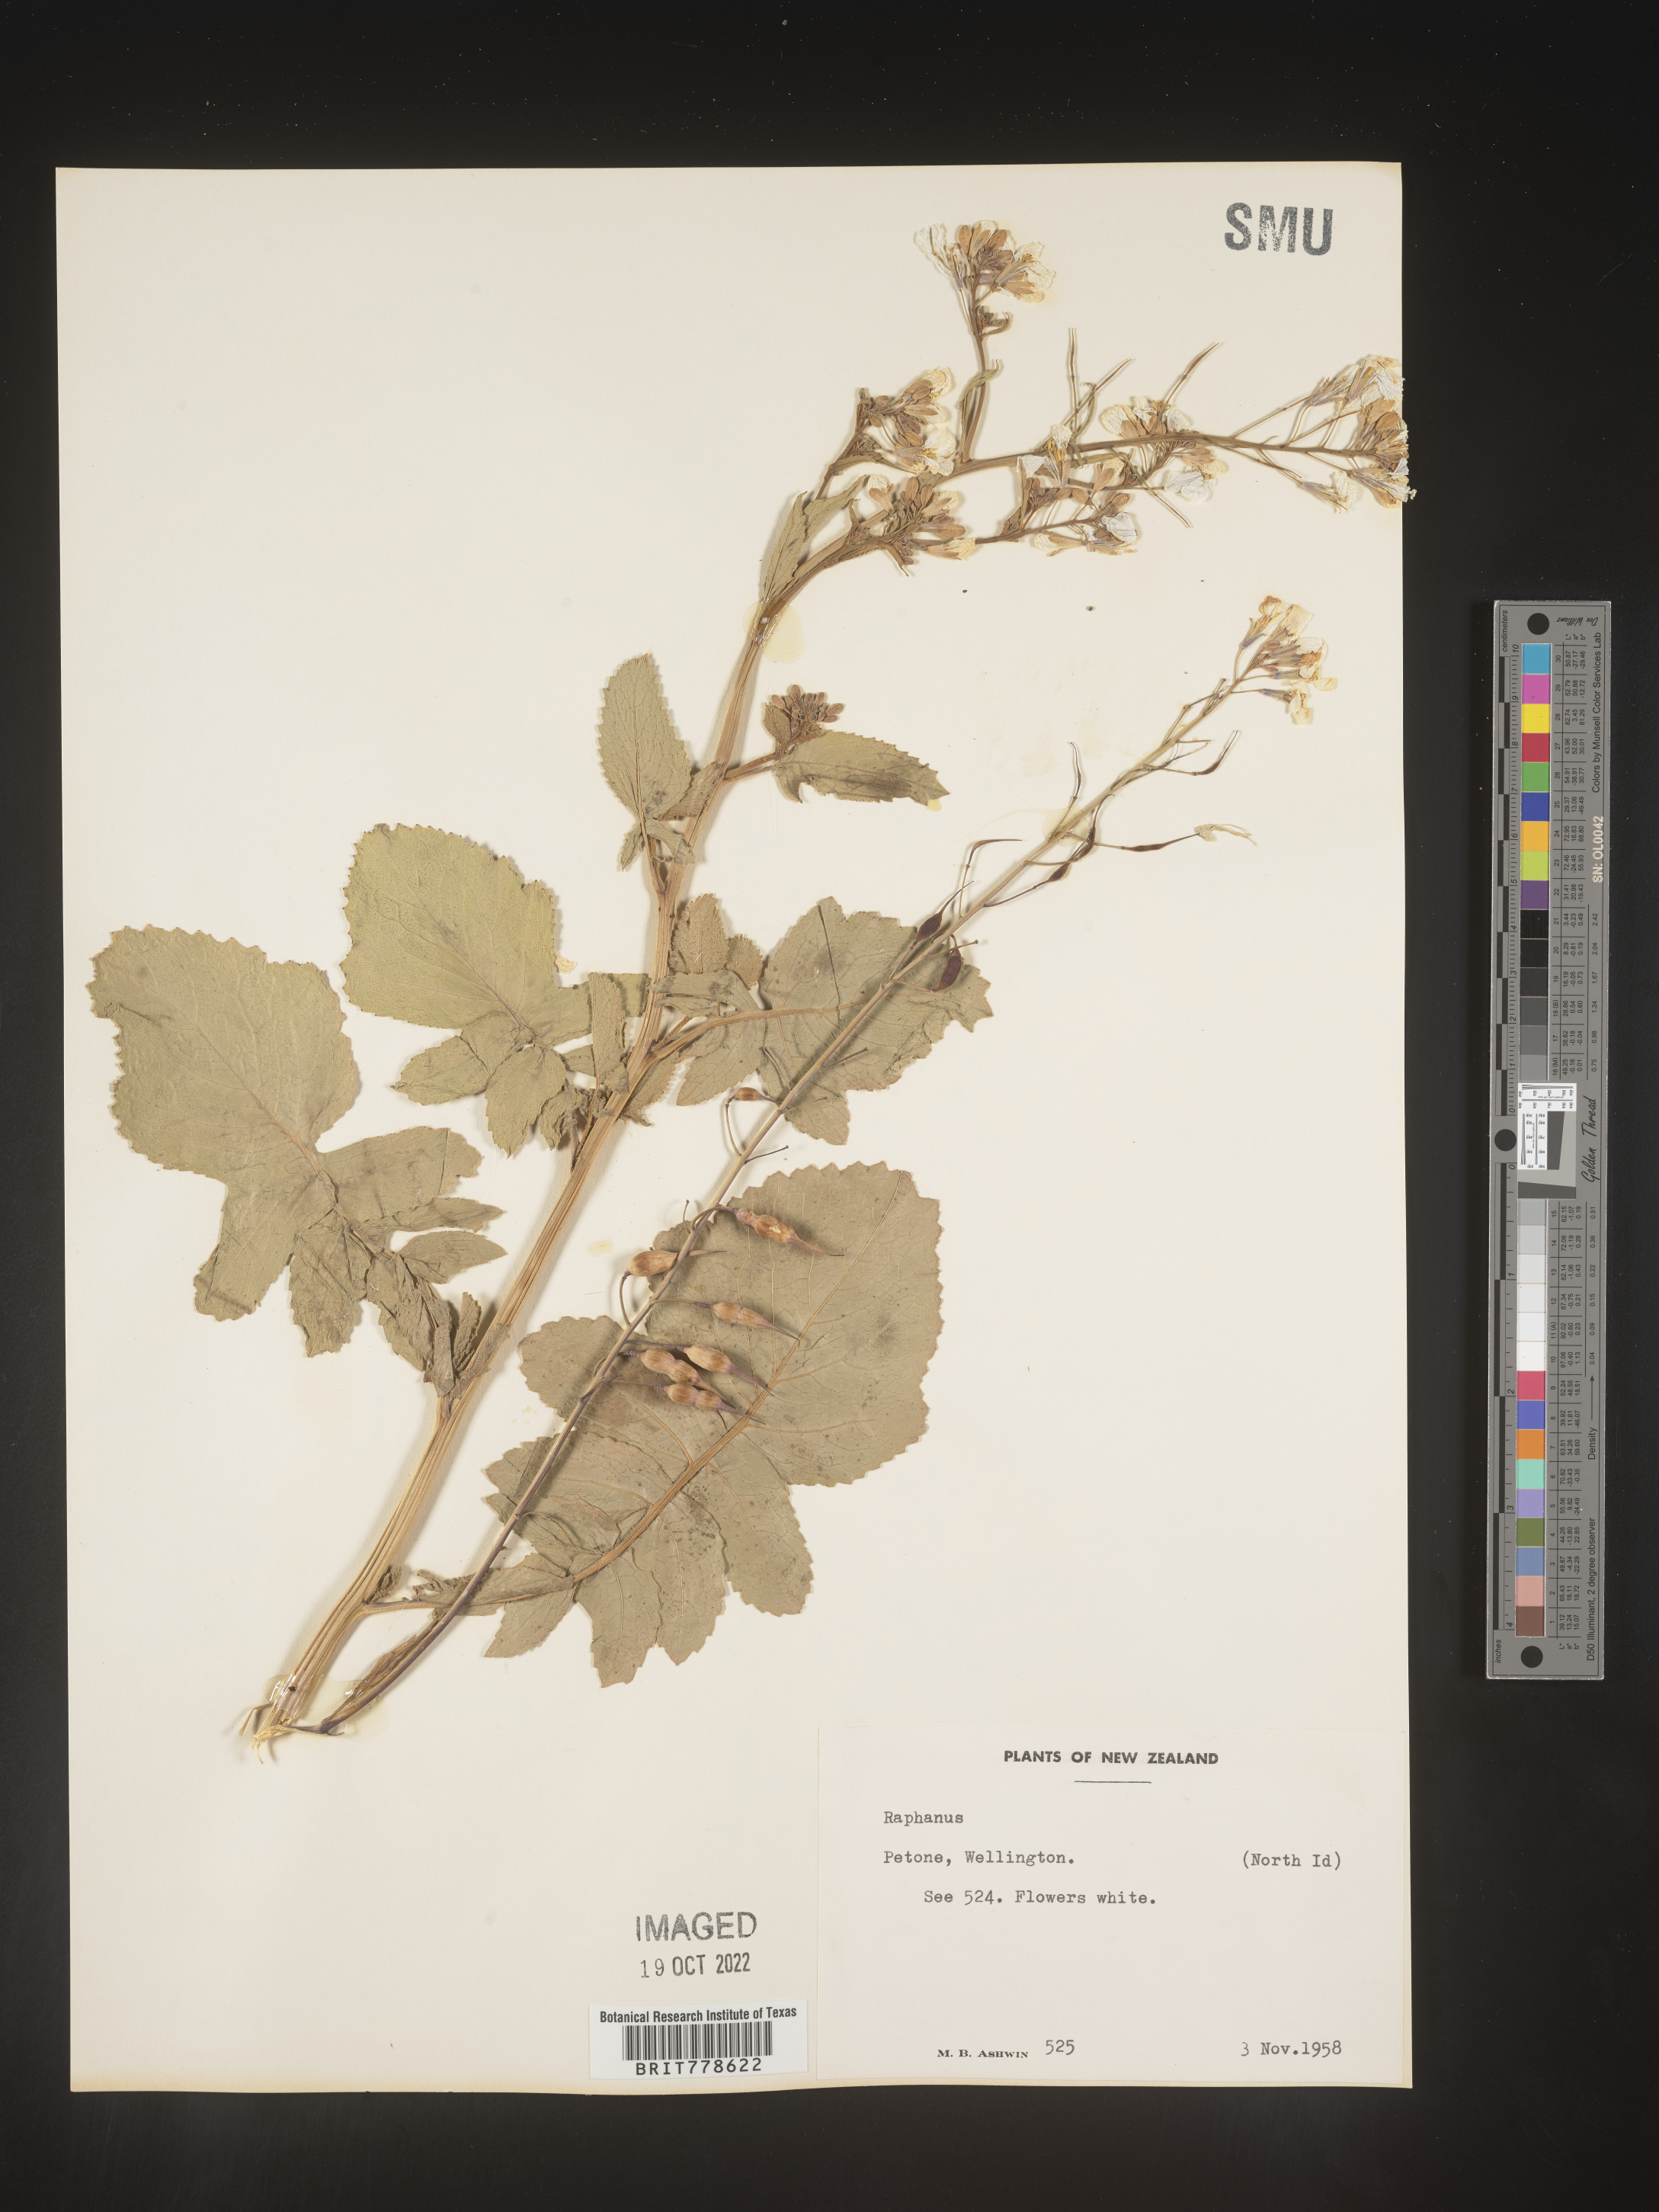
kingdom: Plantae
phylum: Tracheophyta
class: Magnoliopsida
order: Brassicales
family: Brassicaceae
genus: Raphanus
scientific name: Raphanus
